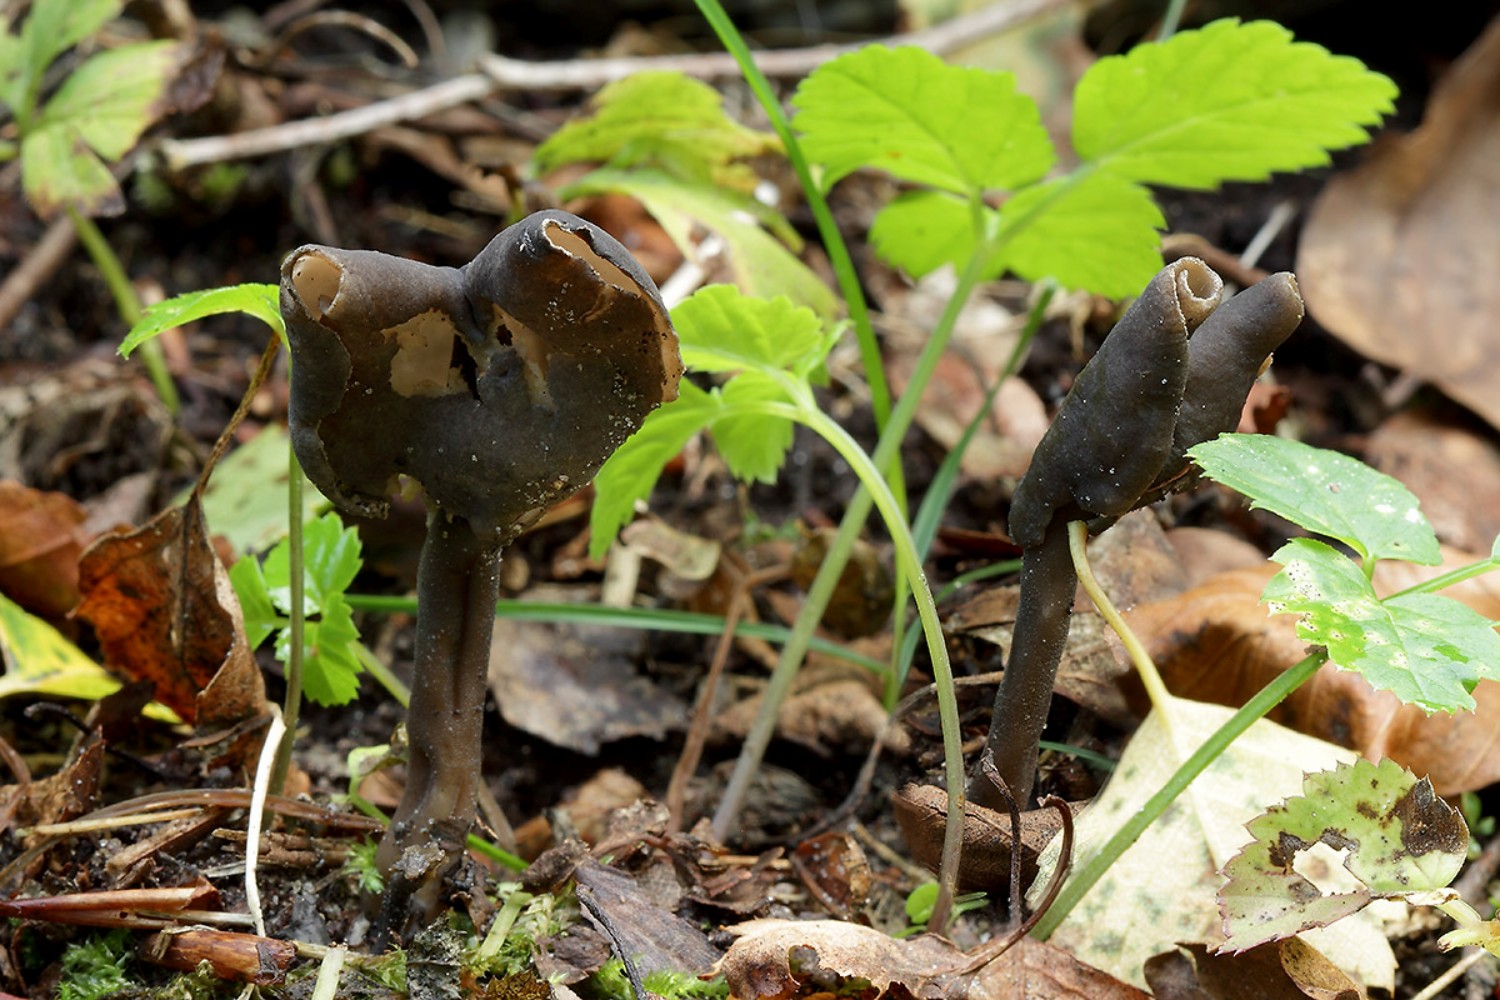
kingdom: Fungi
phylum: Ascomycota
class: Pezizomycetes
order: Pezizales
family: Helvellaceae
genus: Helvella
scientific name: Helvella atra
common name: sort foldhat
